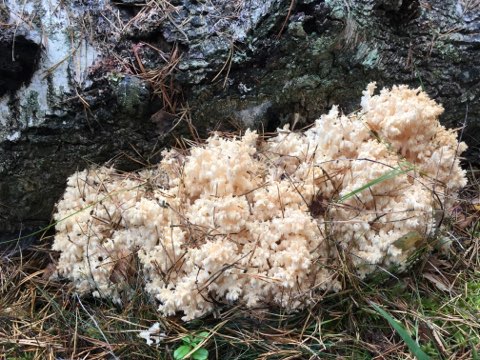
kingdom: Fungi
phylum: Basidiomycota
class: Agaricomycetes
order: Russulales
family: Hericiaceae
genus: Hericium
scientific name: Hericium coralloides
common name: koralpigsvamp
